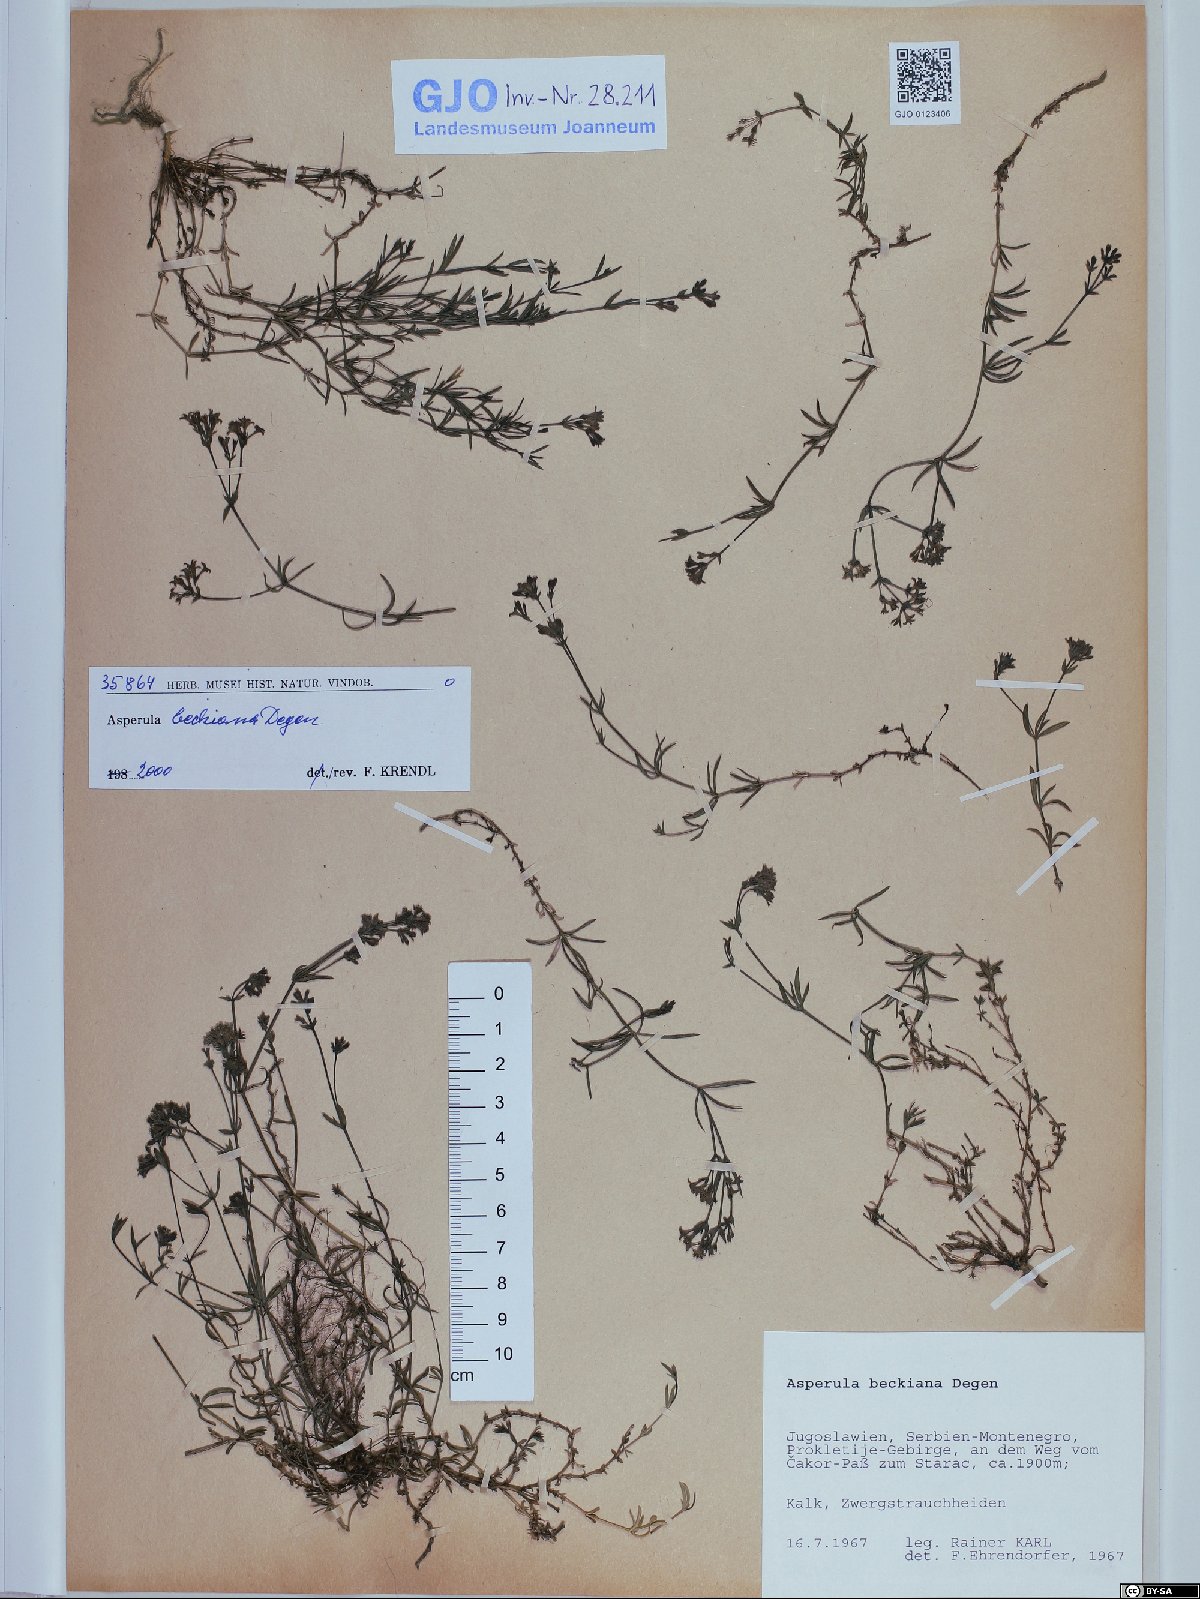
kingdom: Plantae
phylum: Tracheophyta
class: Magnoliopsida
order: Gentianales
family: Rubiaceae
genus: Cynanchica
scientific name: Cynanchica beckiana
